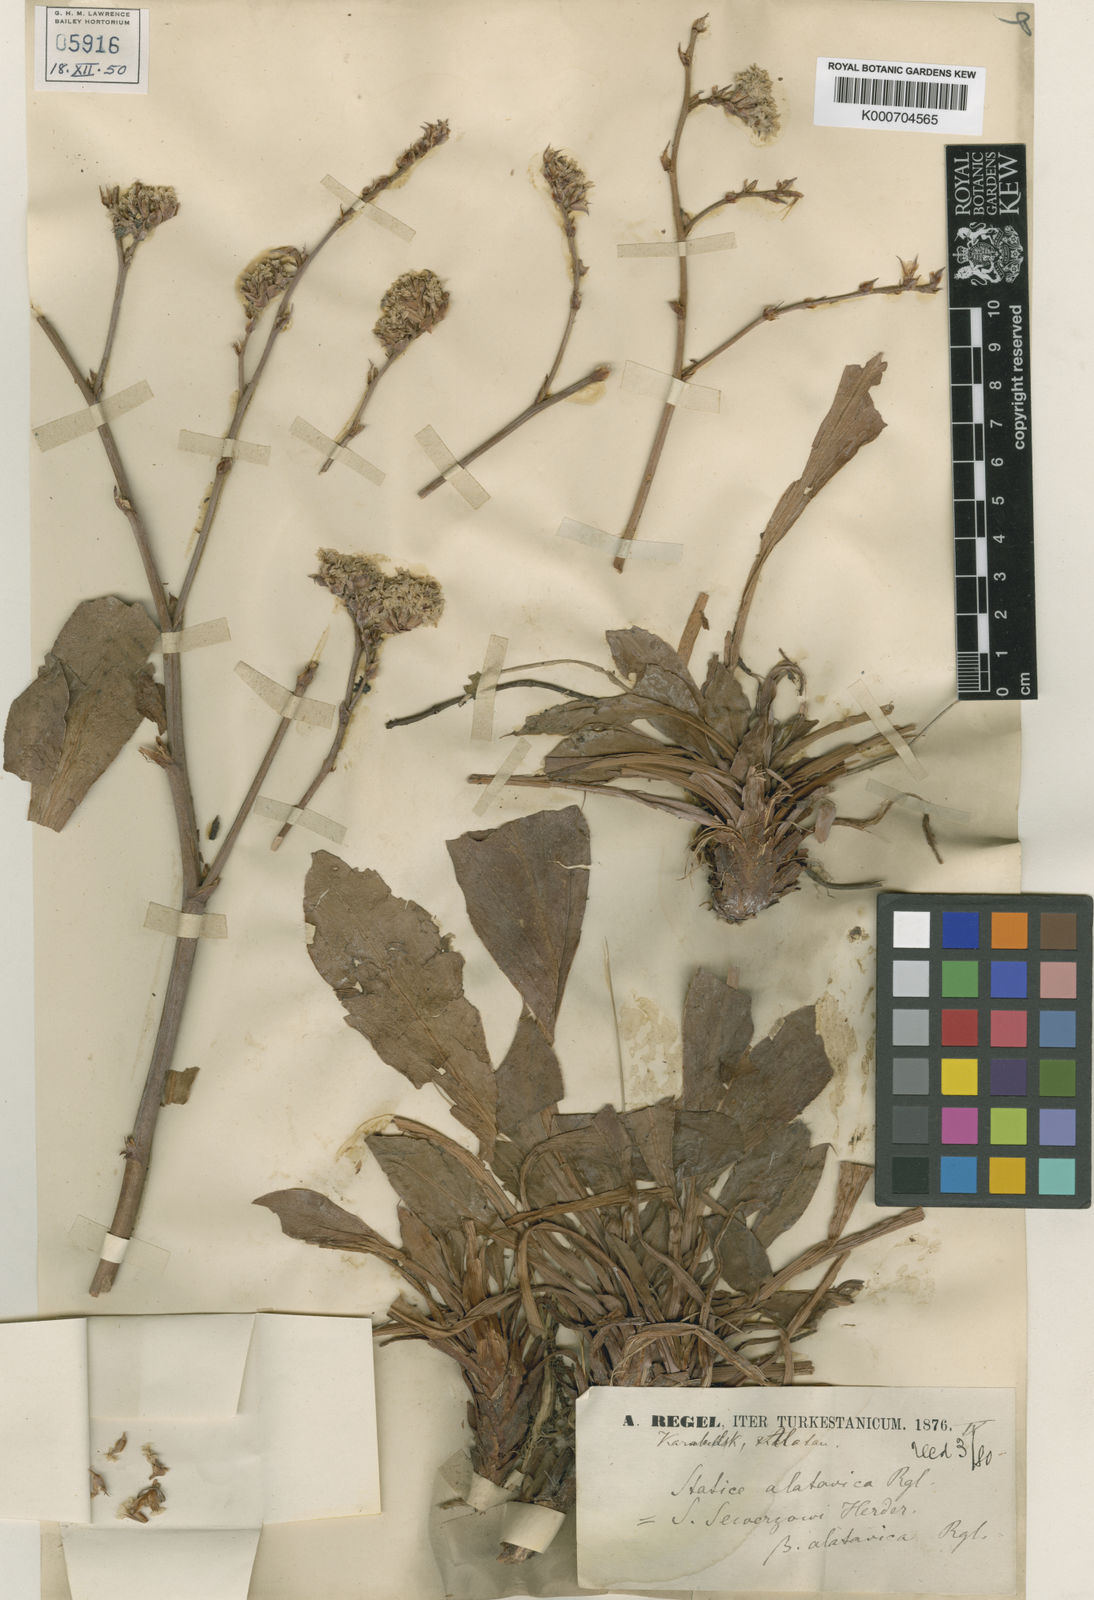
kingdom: Plantae
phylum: Tracheophyta
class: Magnoliopsida
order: Caryophyllales
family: Plumbaginaceae
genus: Goniolimon
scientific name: Goniolimon
